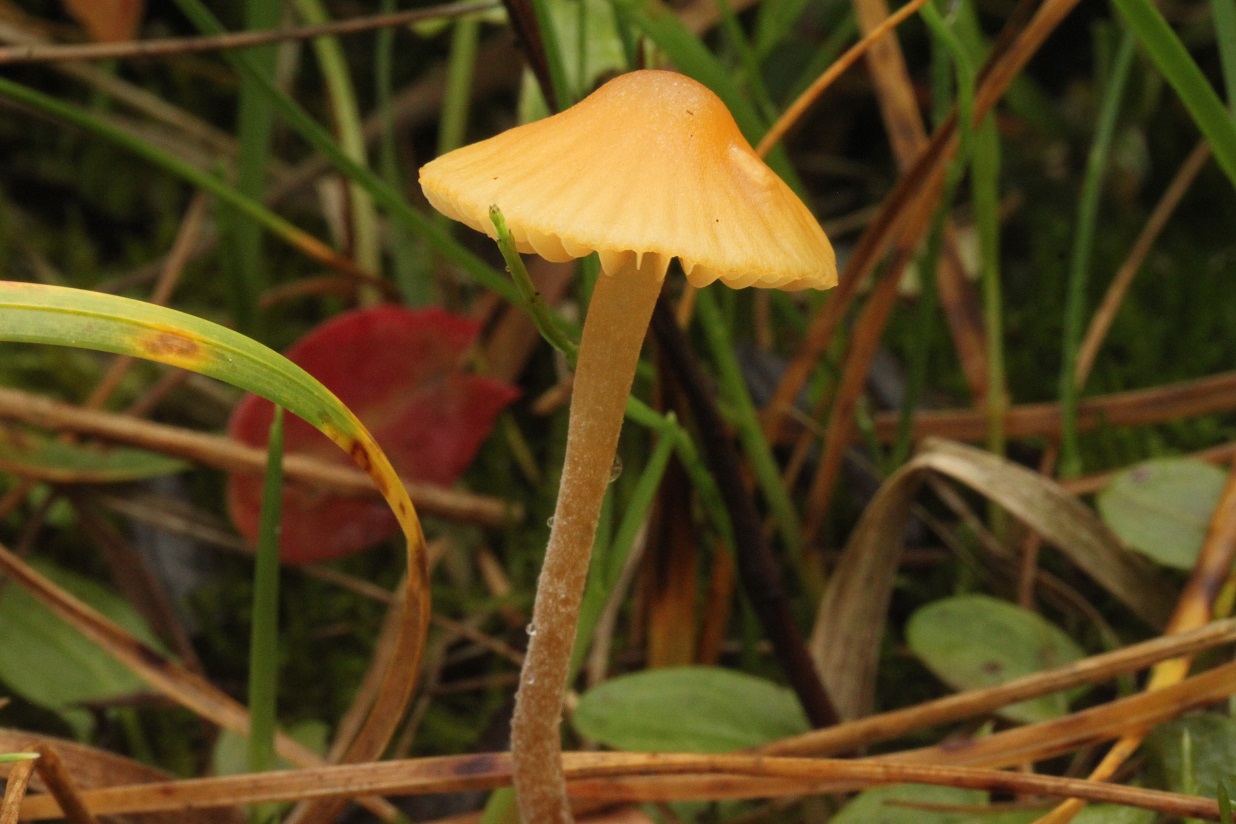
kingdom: Fungi
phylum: Basidiomycota
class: Agaricomycetes
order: Agaricales
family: Hymenogastraceae
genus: Galerina
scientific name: Galerina clavata
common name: kær-hjelmhat
